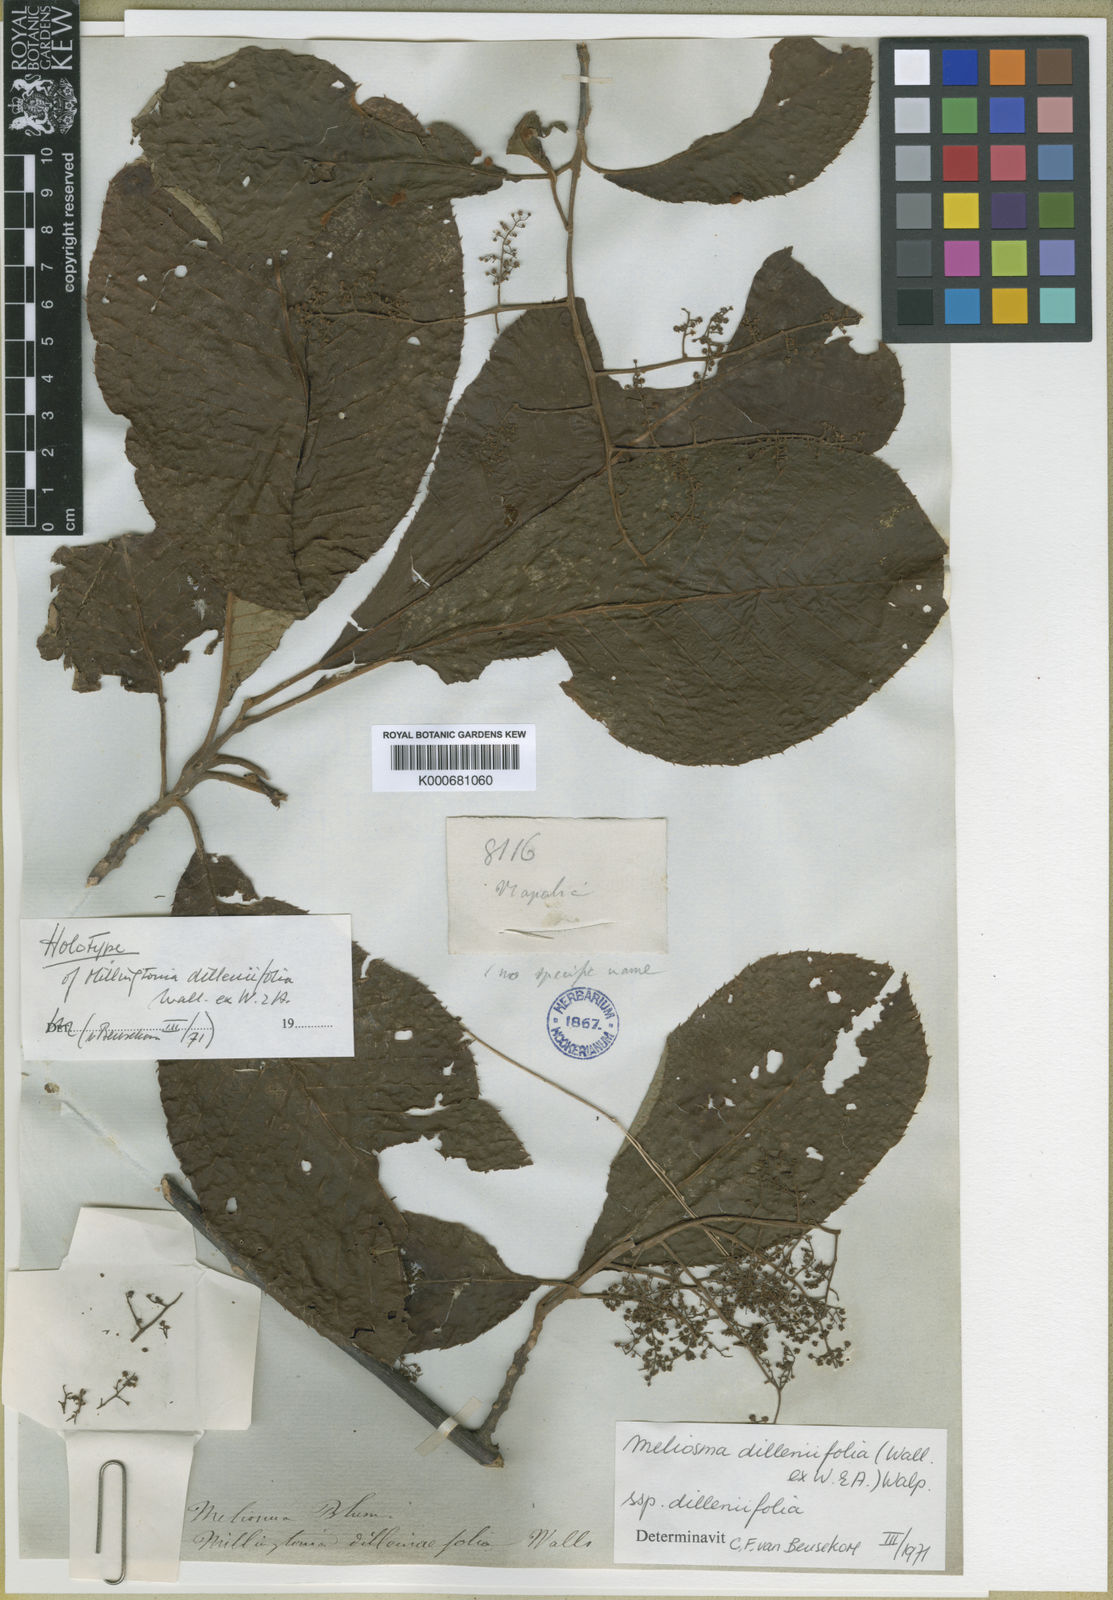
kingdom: Plantae
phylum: Tracheophyta
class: Magnoliopsida
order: Proteales
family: Sabiaceae
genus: Meliosma
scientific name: Meliosma dilleniifolia
